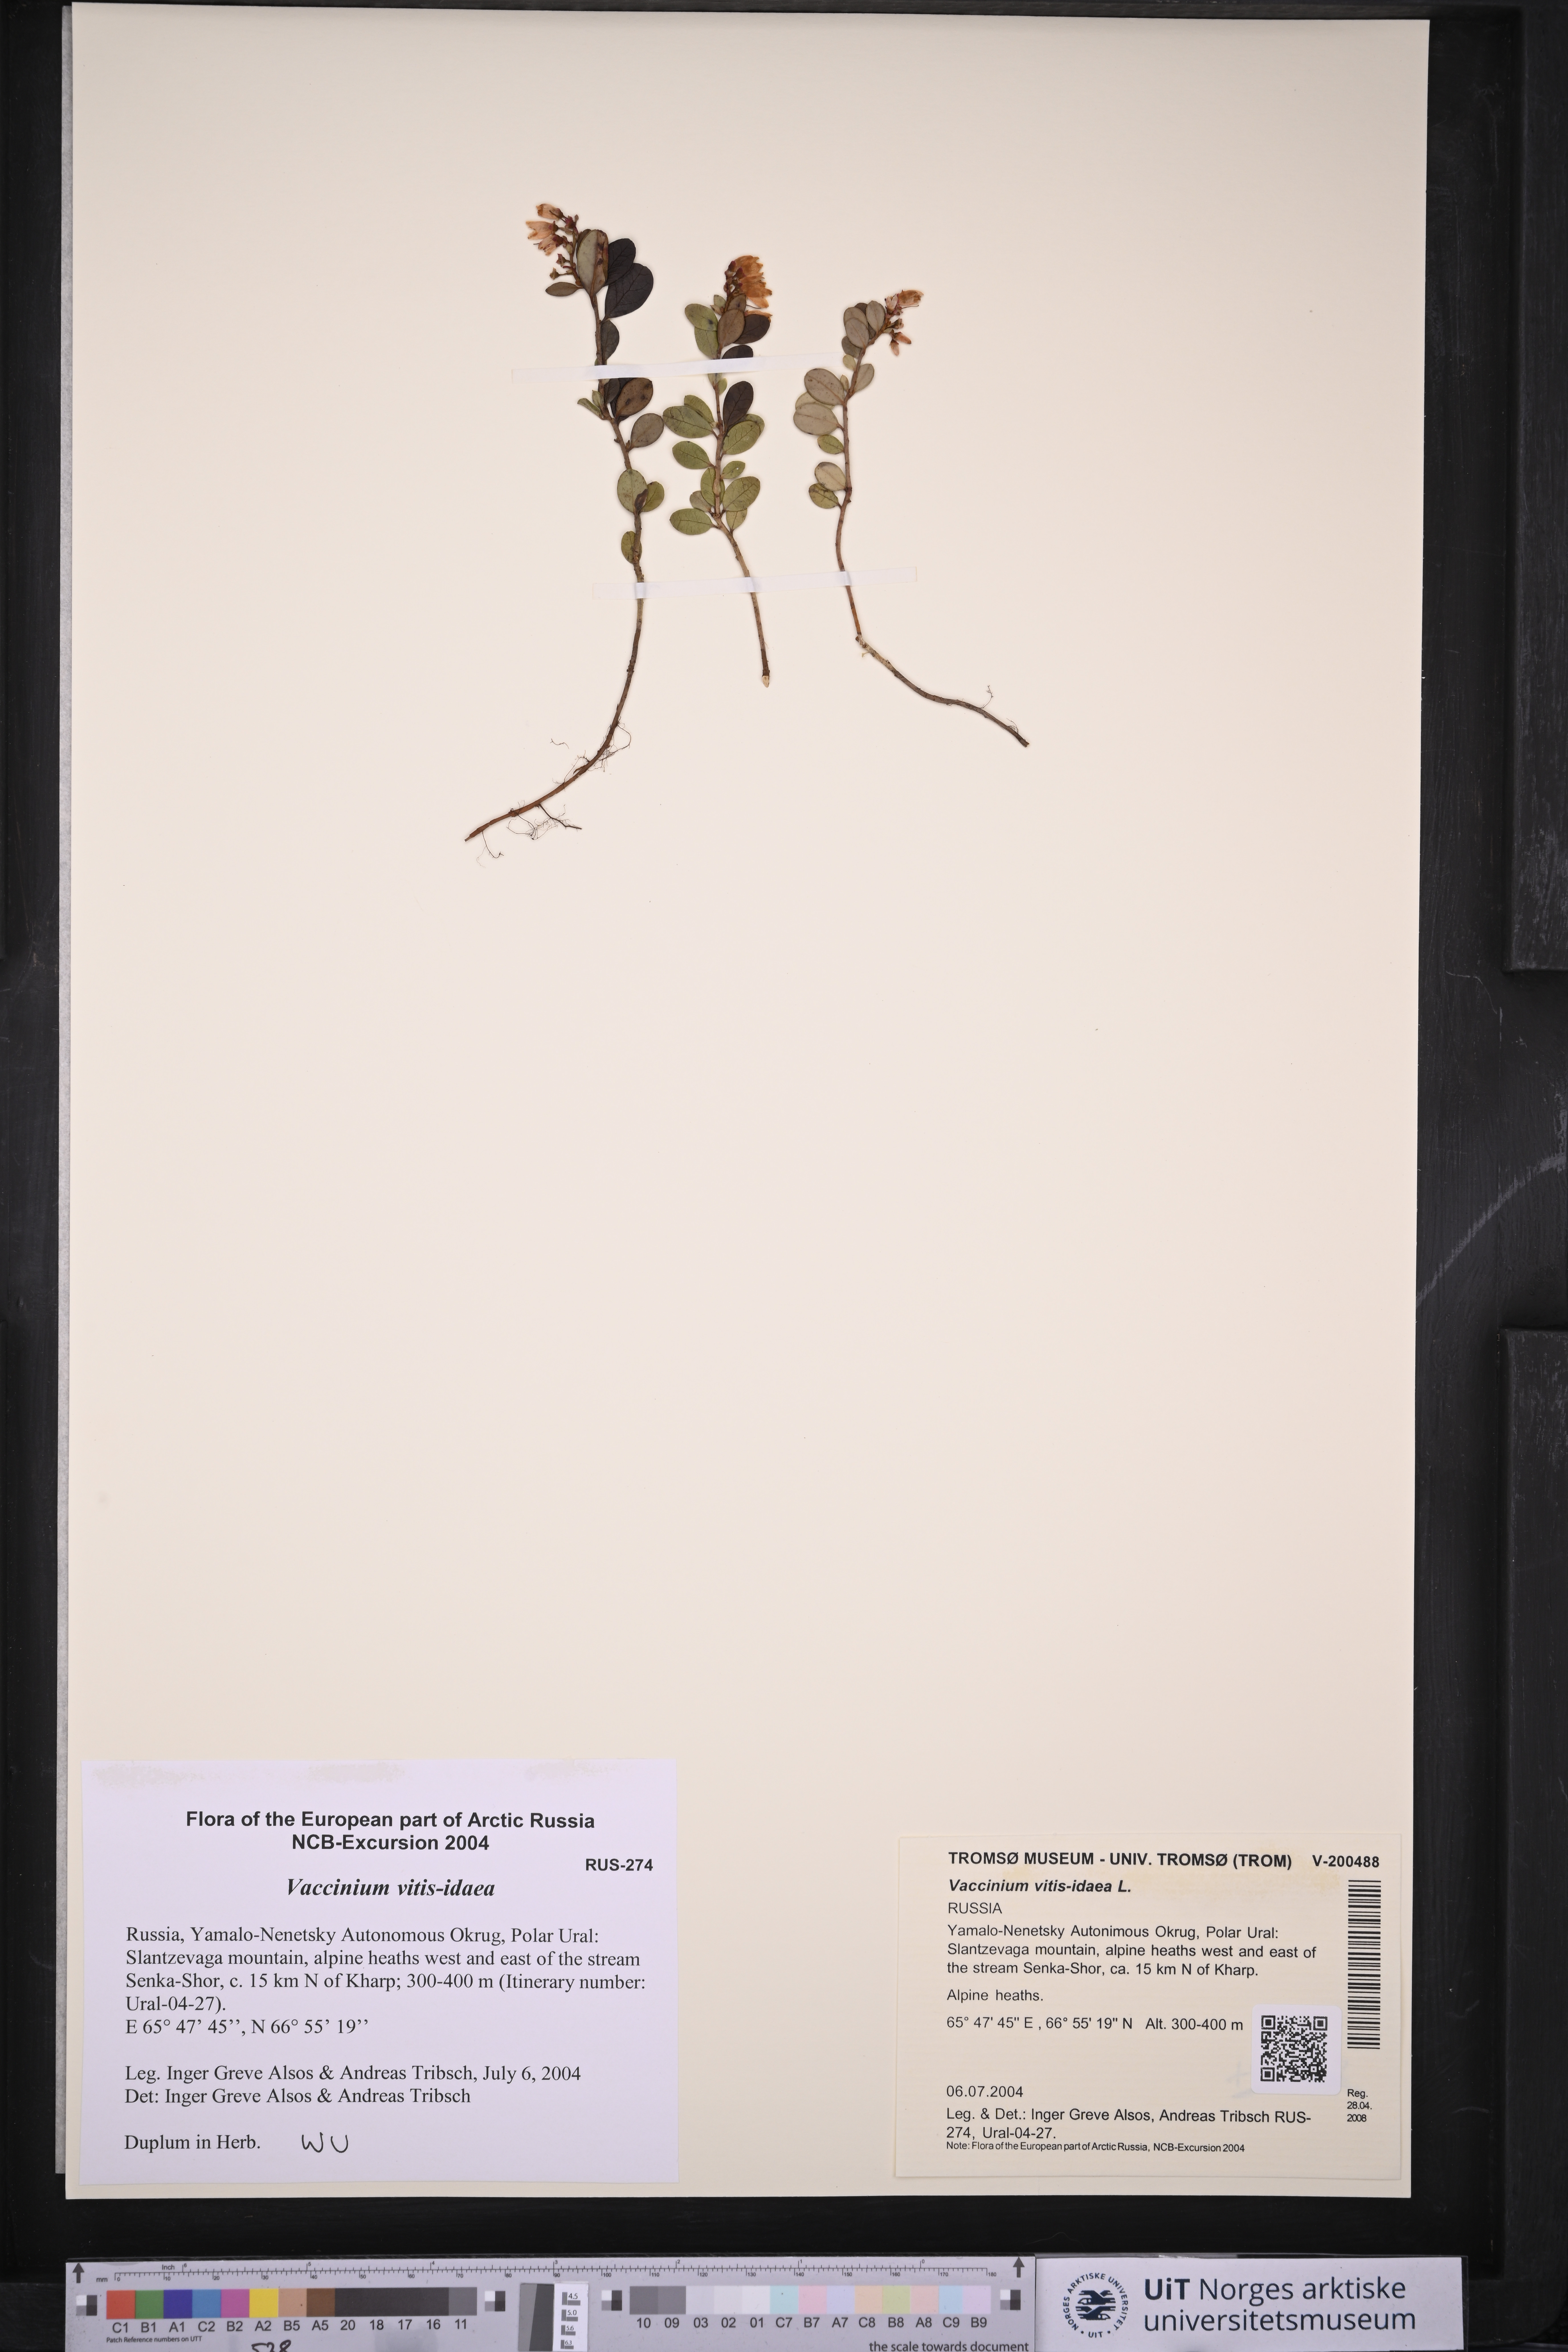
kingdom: Plantae
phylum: Tracheophyta
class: Magnoliopsida
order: Ericales
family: Ericaceae
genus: Vaccinium
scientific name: Vaccinium vitis-idaea
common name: Cowberry
